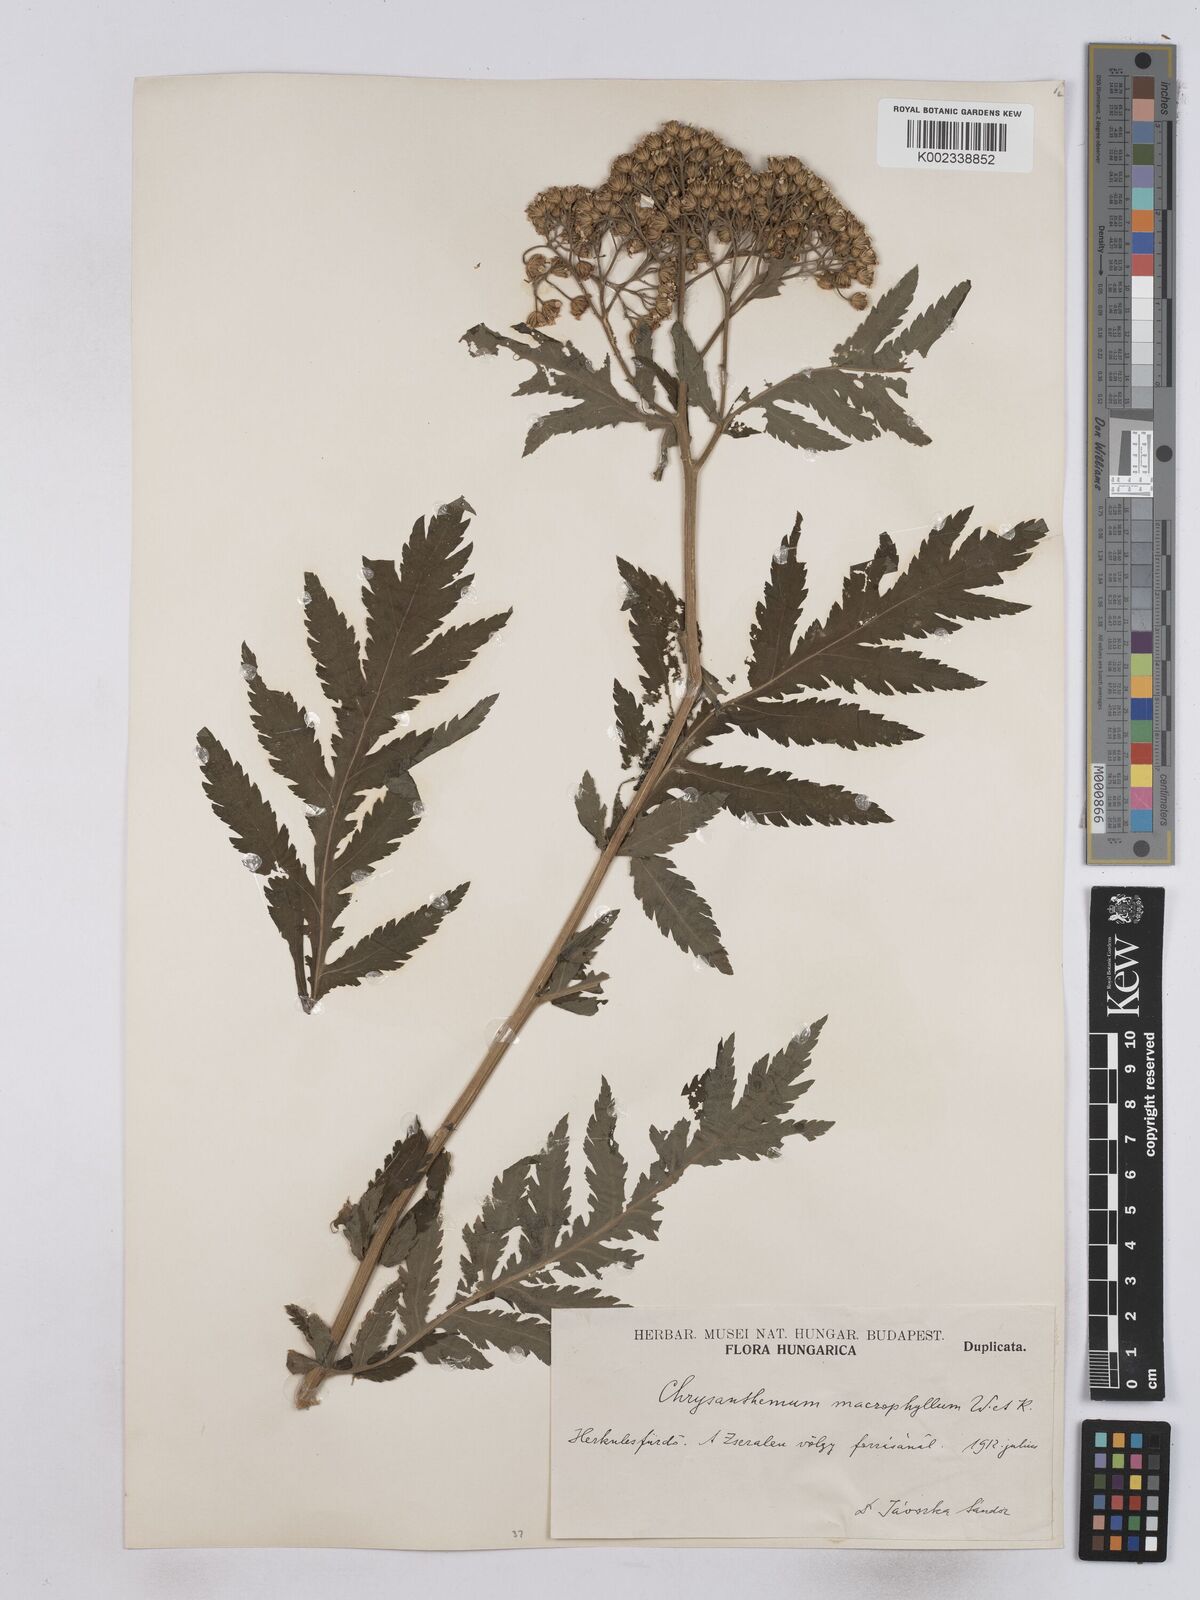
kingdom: Plantae
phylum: Tracheophyta
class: Magnoliopsida
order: Asterales
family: Asteraceae
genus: Tanacetum
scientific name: Tanacetum macrophyllum
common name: Rayed tansy
